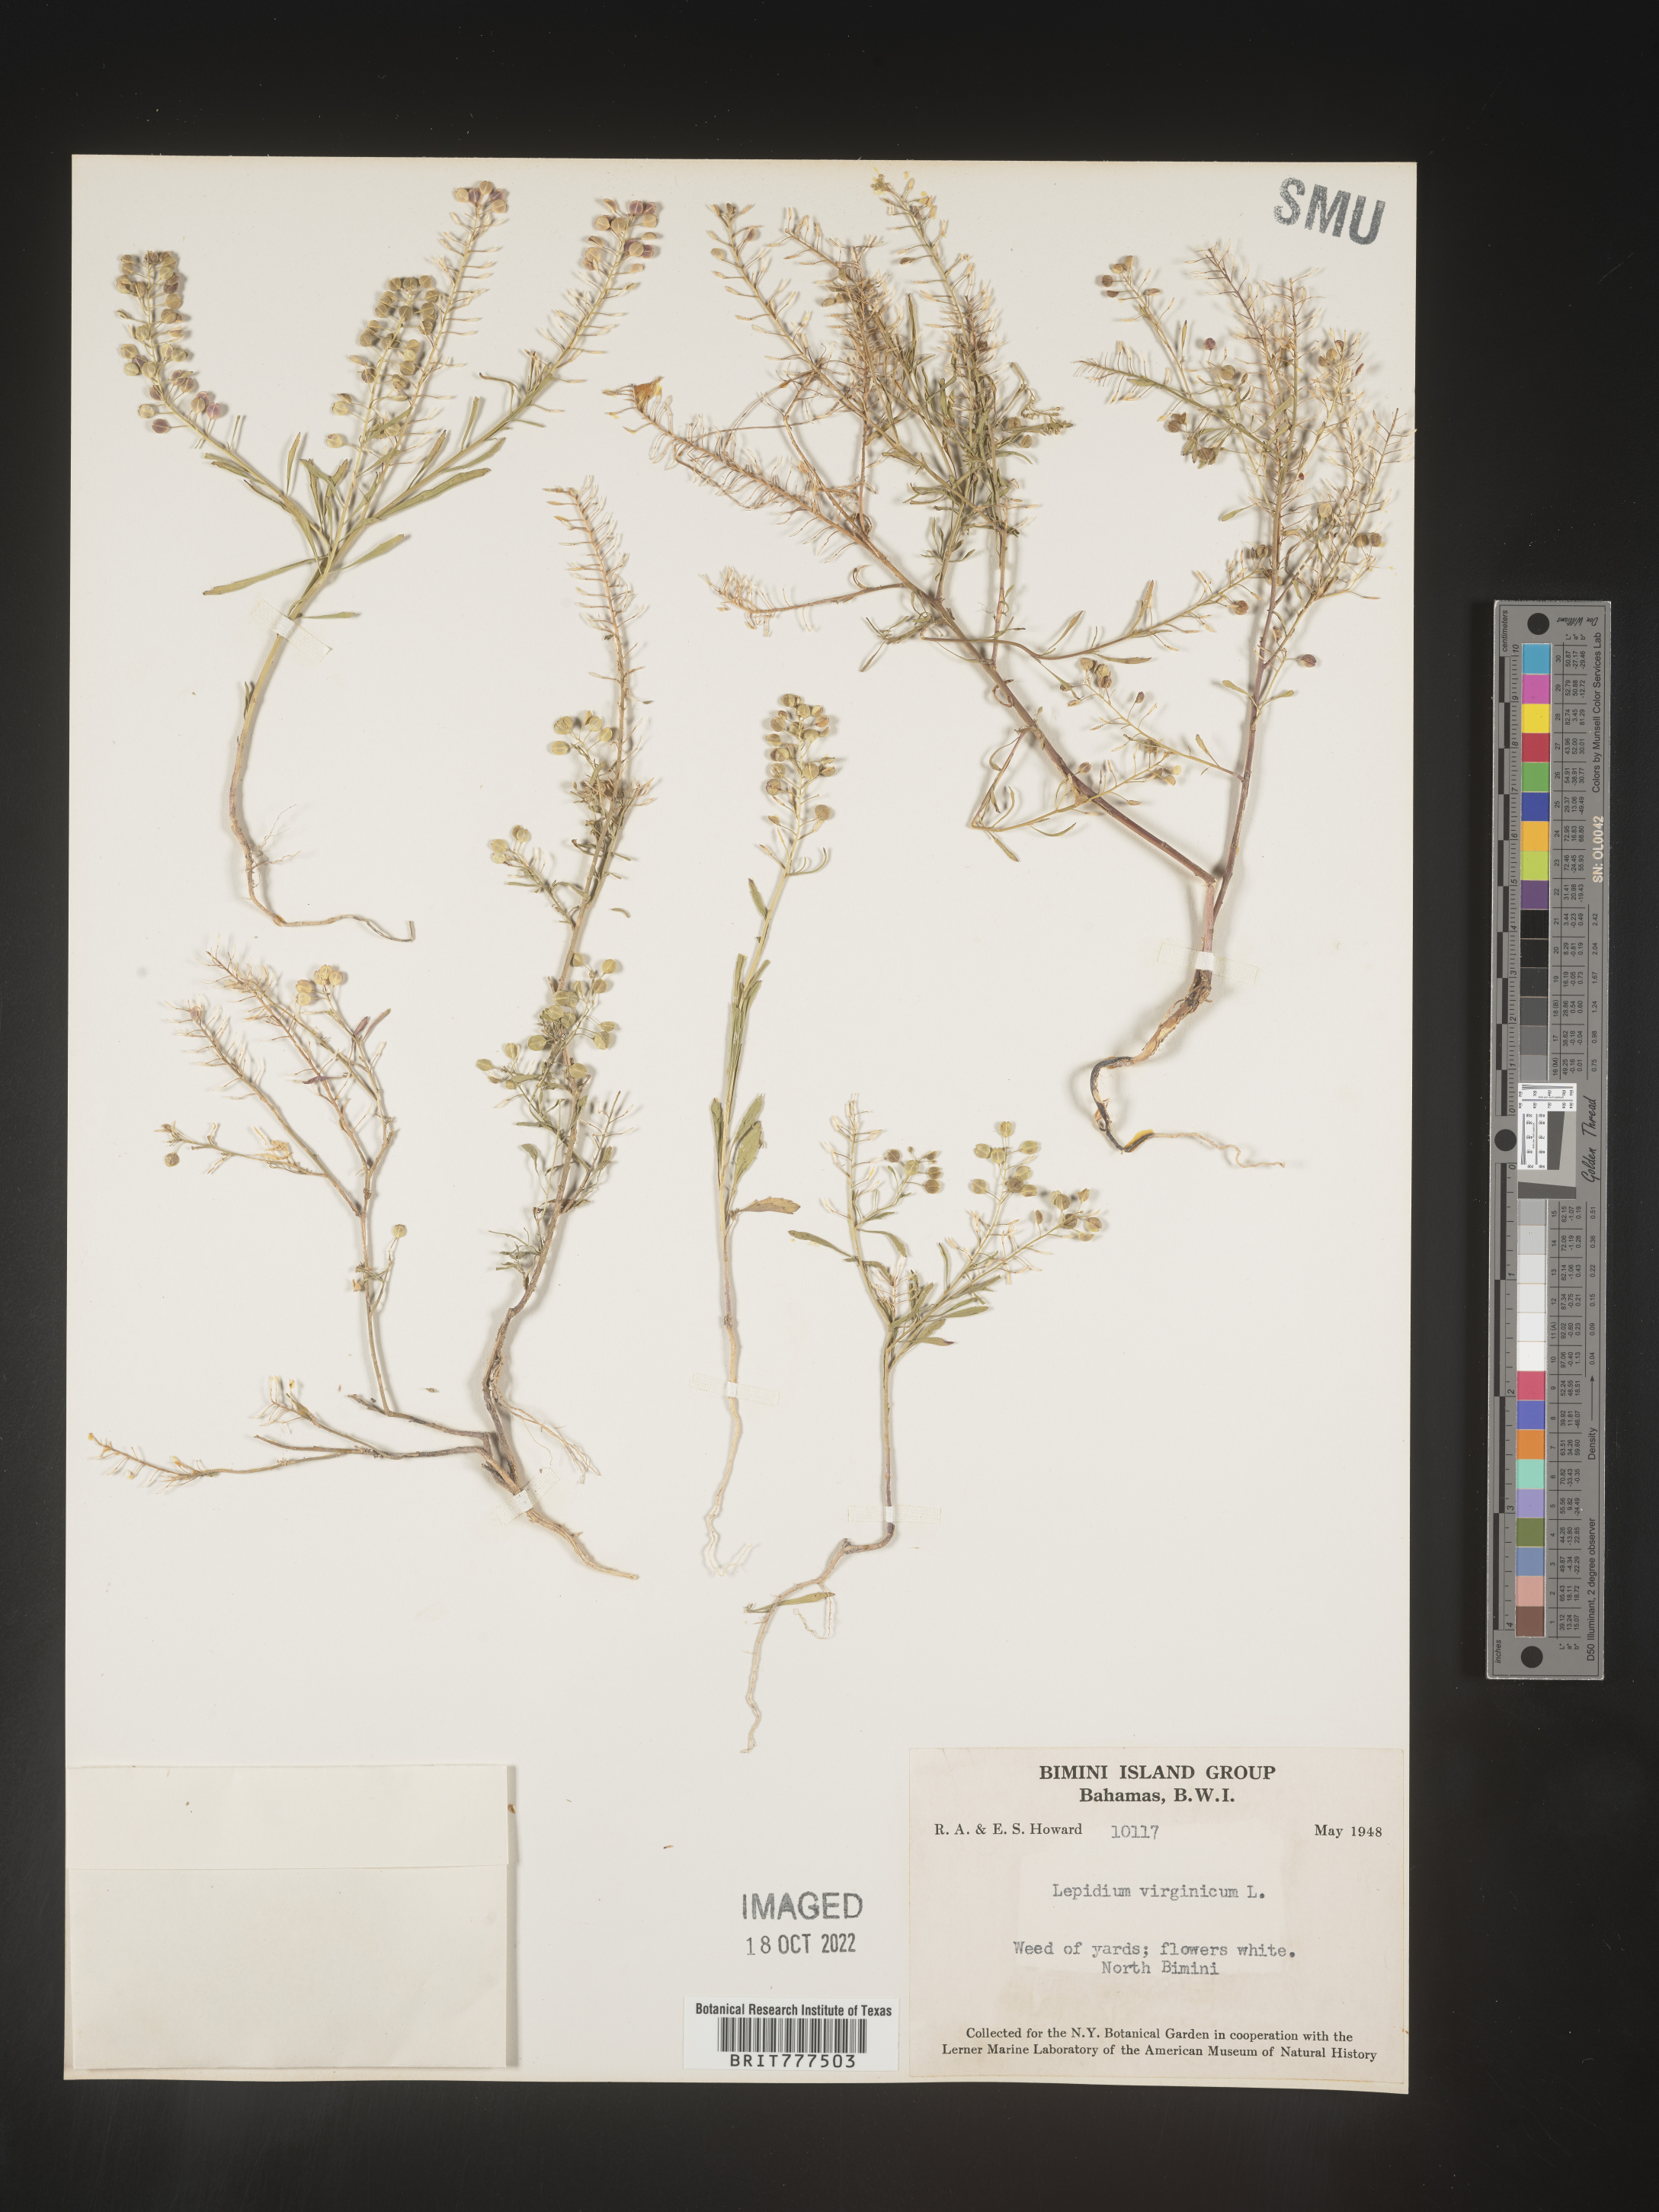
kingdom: Plantae
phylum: Tracheophyta
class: Magnoliopsida
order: Brassicales
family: Brassicaceae
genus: Lepidium
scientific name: Lepidium
